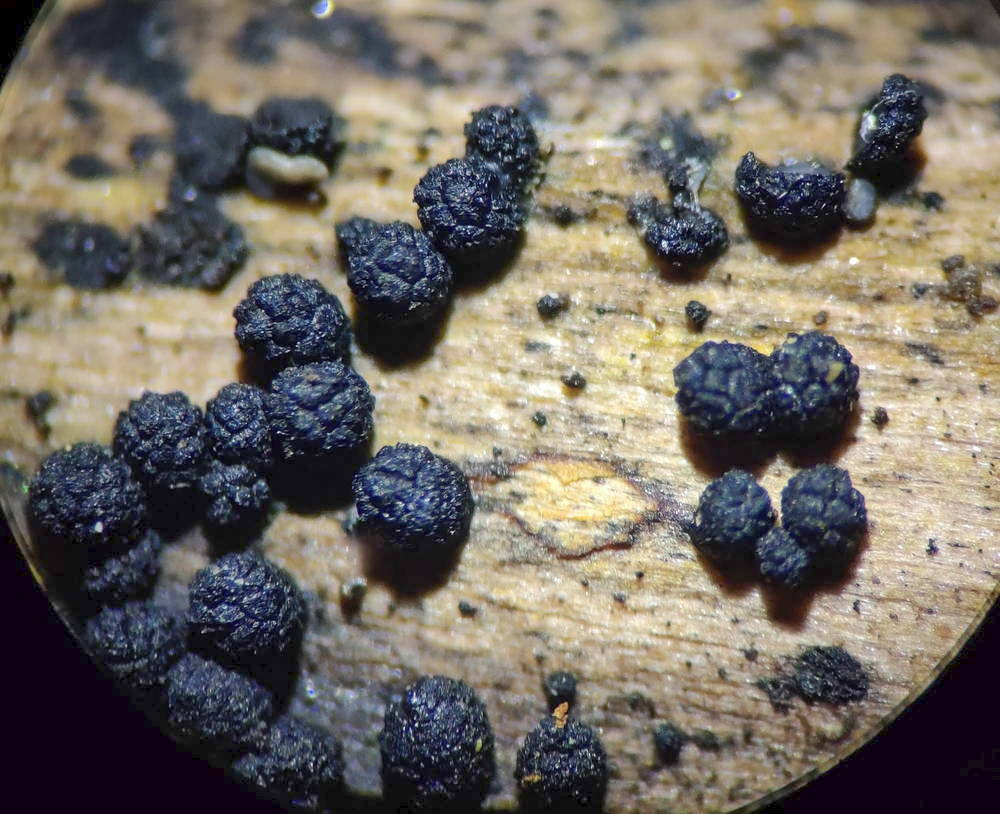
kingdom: Fungi
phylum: Ascomycota
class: Sordariomycetes
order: Coronophorales
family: Bertiaceae
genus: Bertia
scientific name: Bertia moriformis
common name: almindelig morbærkerne
